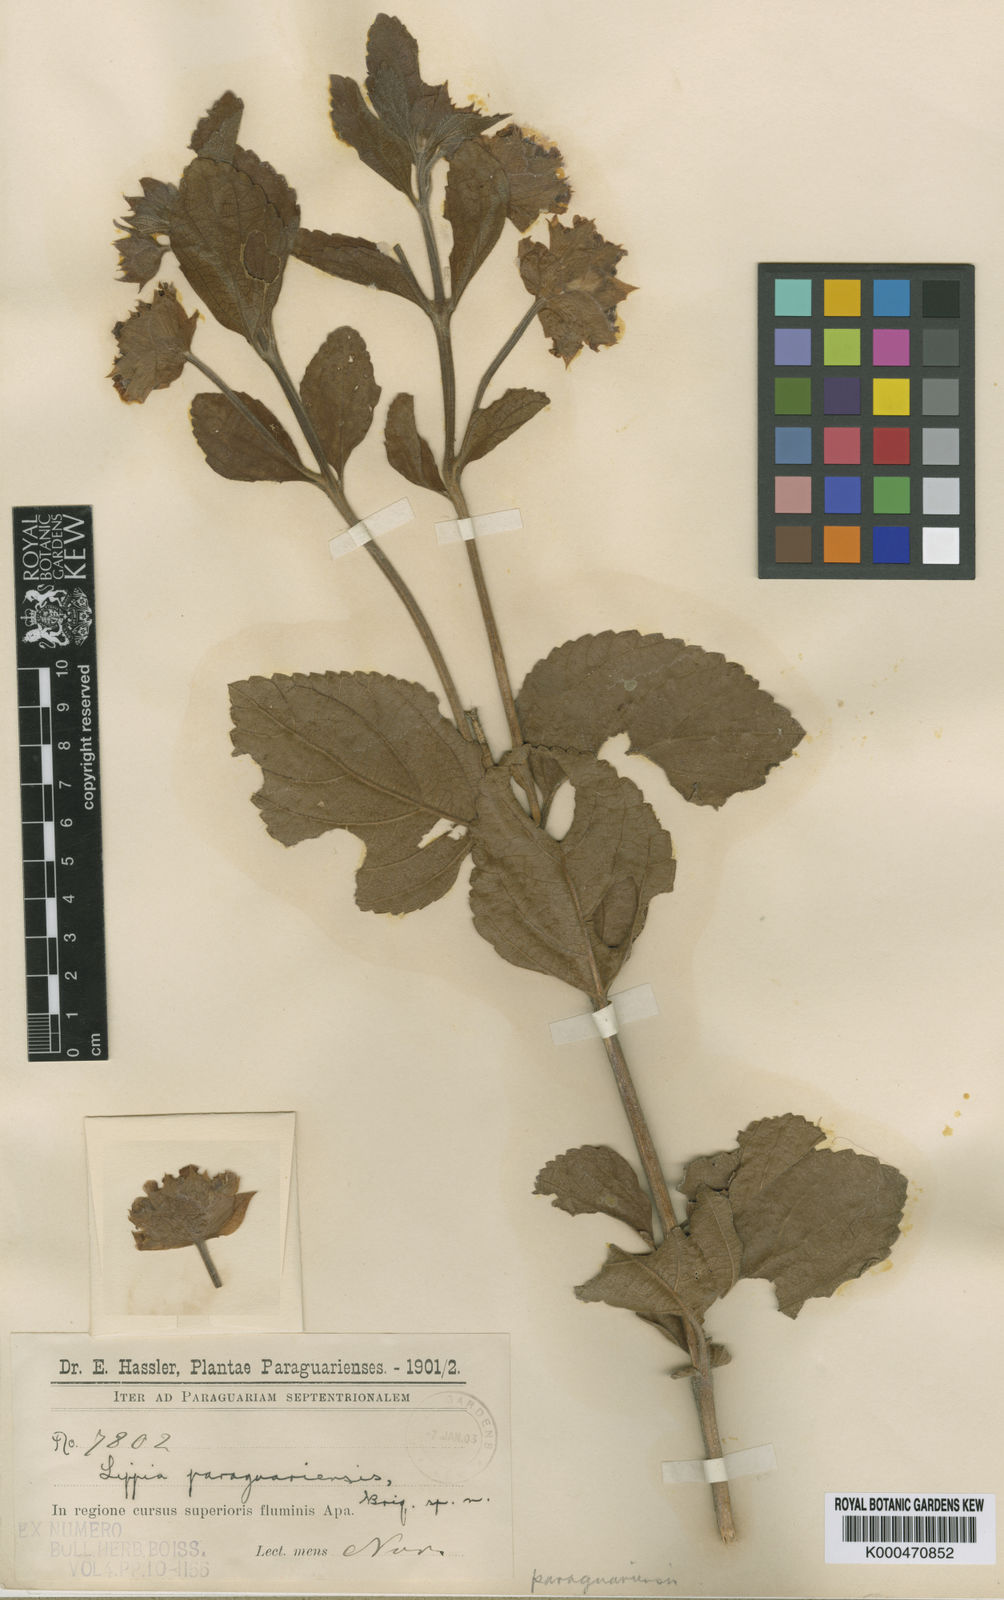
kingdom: Plantae
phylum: Tracheophyta
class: Magnoliopsida
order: Lamiales
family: Verbenaceae
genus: Lippia
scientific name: Lippia lupulina
